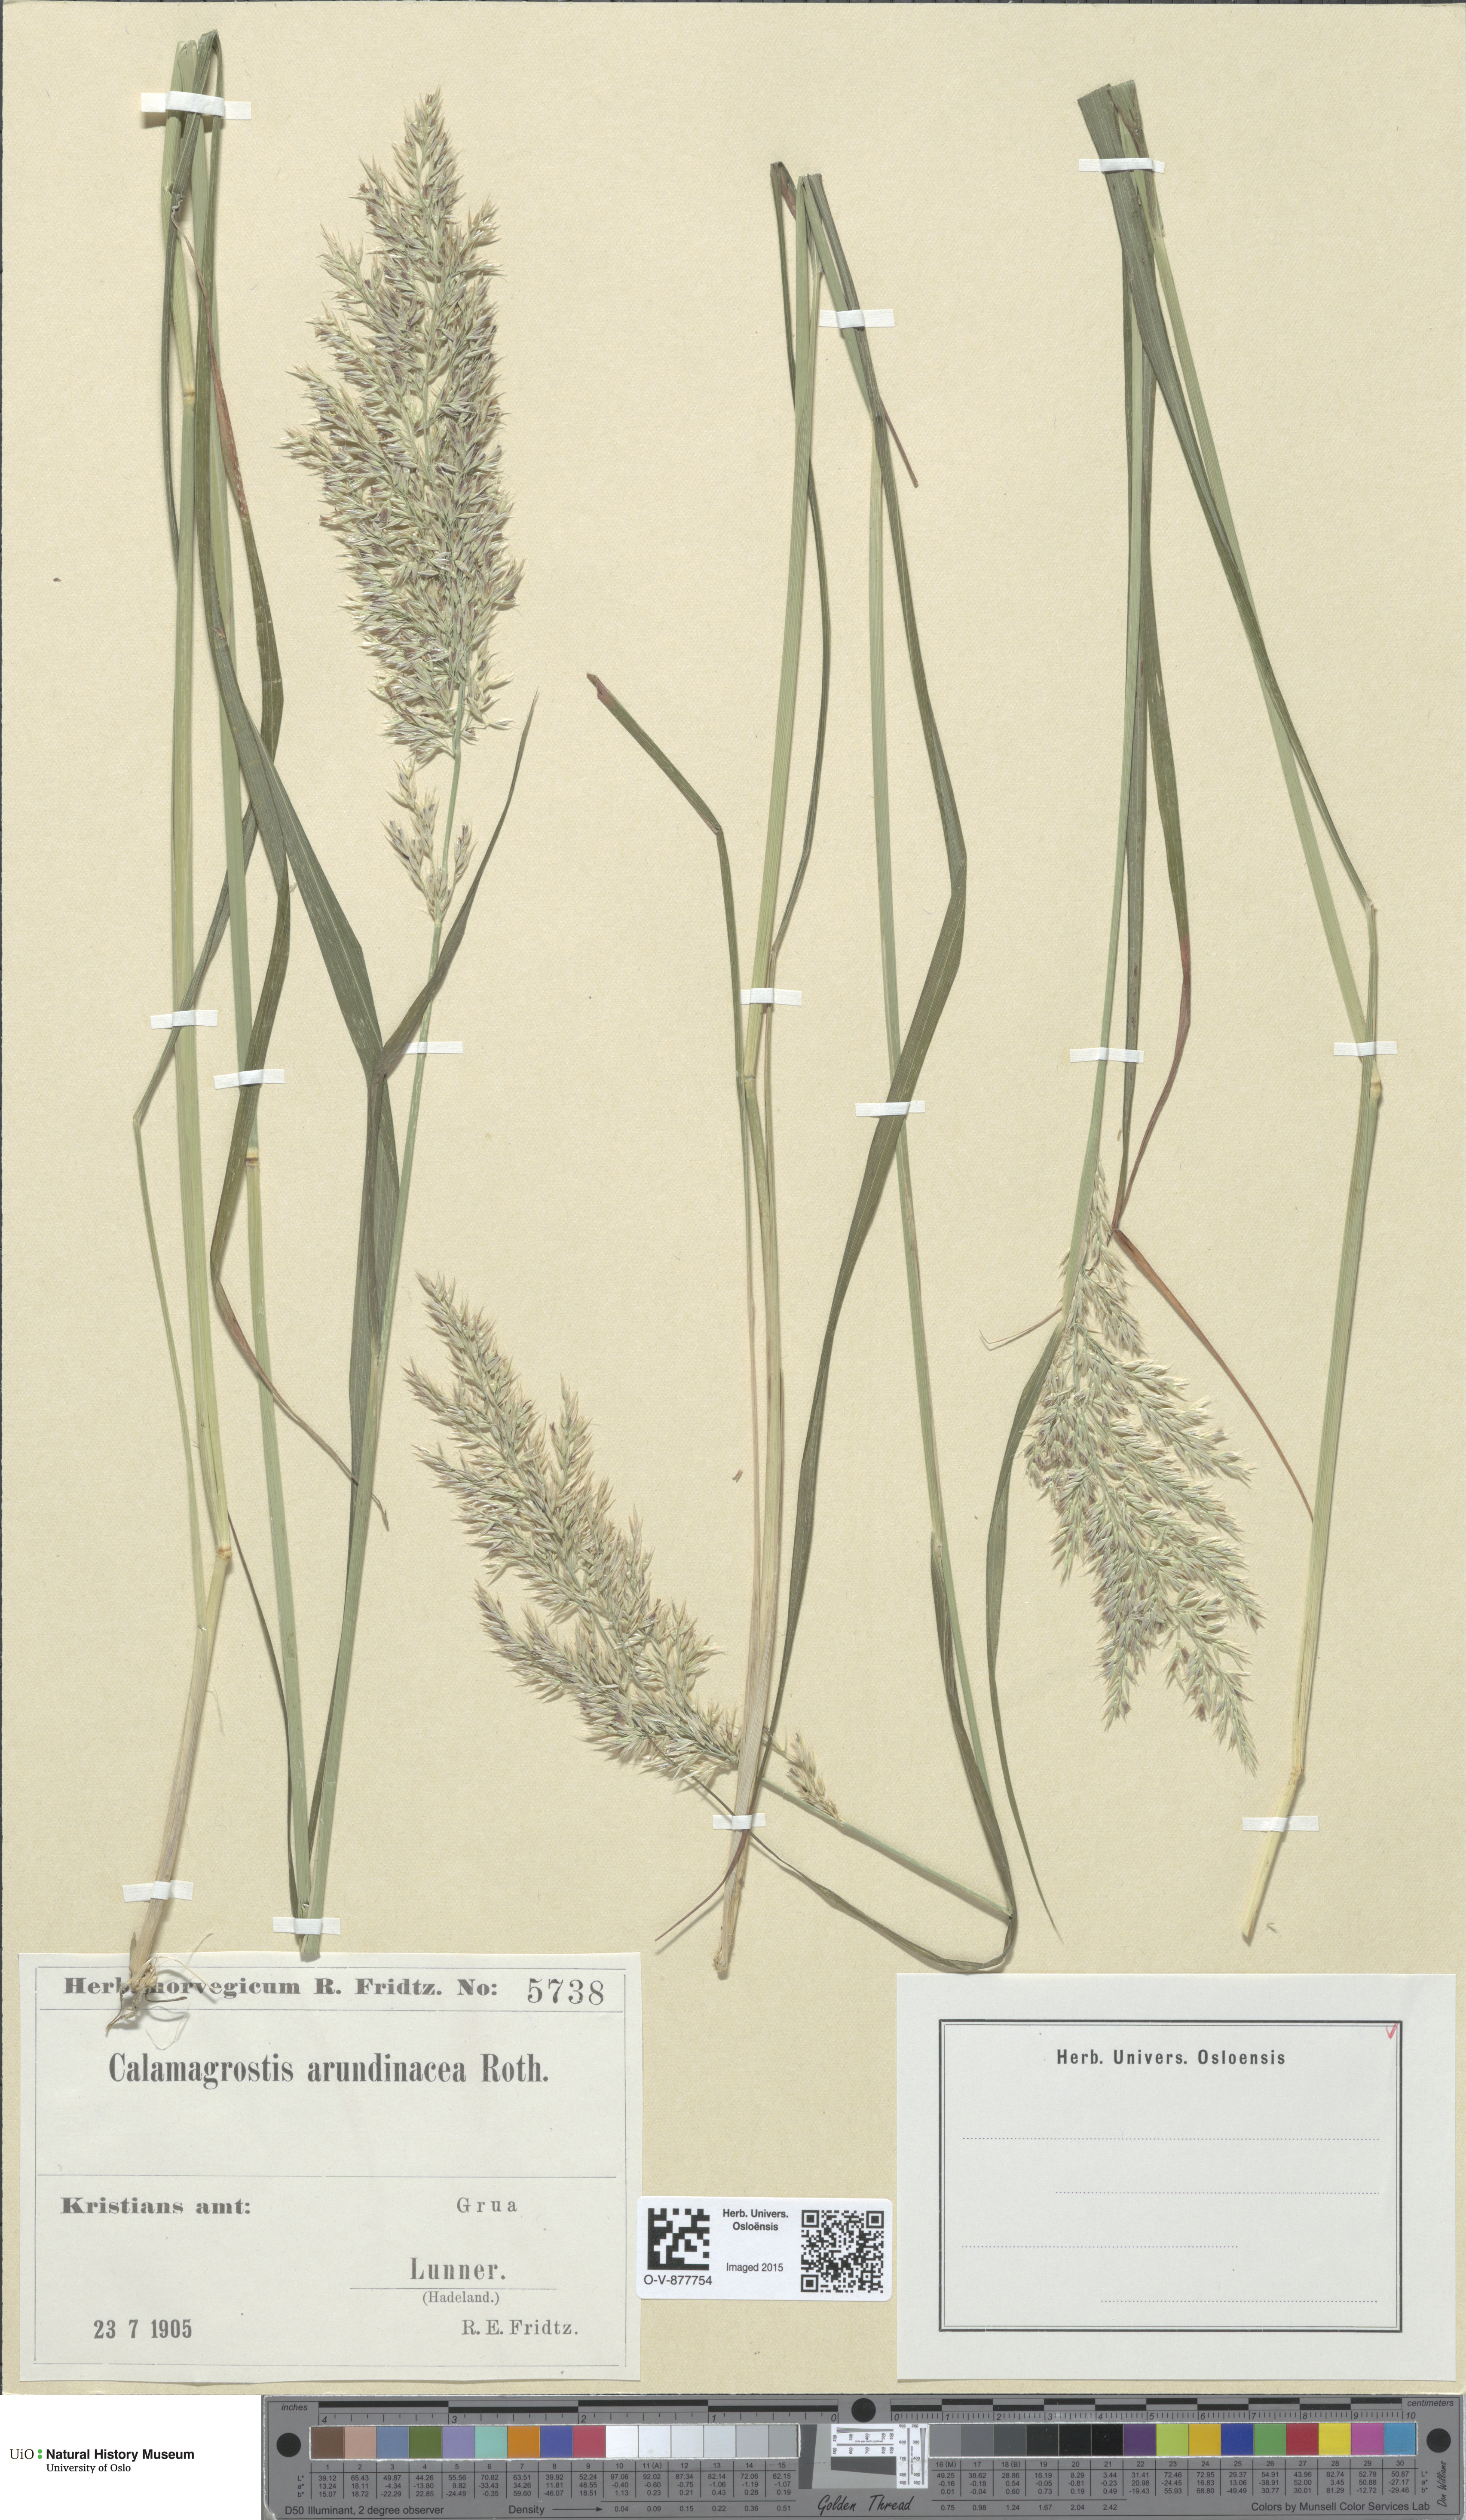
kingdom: Plantae
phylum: Tracheophyta
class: Liliopsida
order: Poales
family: Poaceae
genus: Calamagrostis
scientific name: Calamagrostis arundinacea
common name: Metskastik
